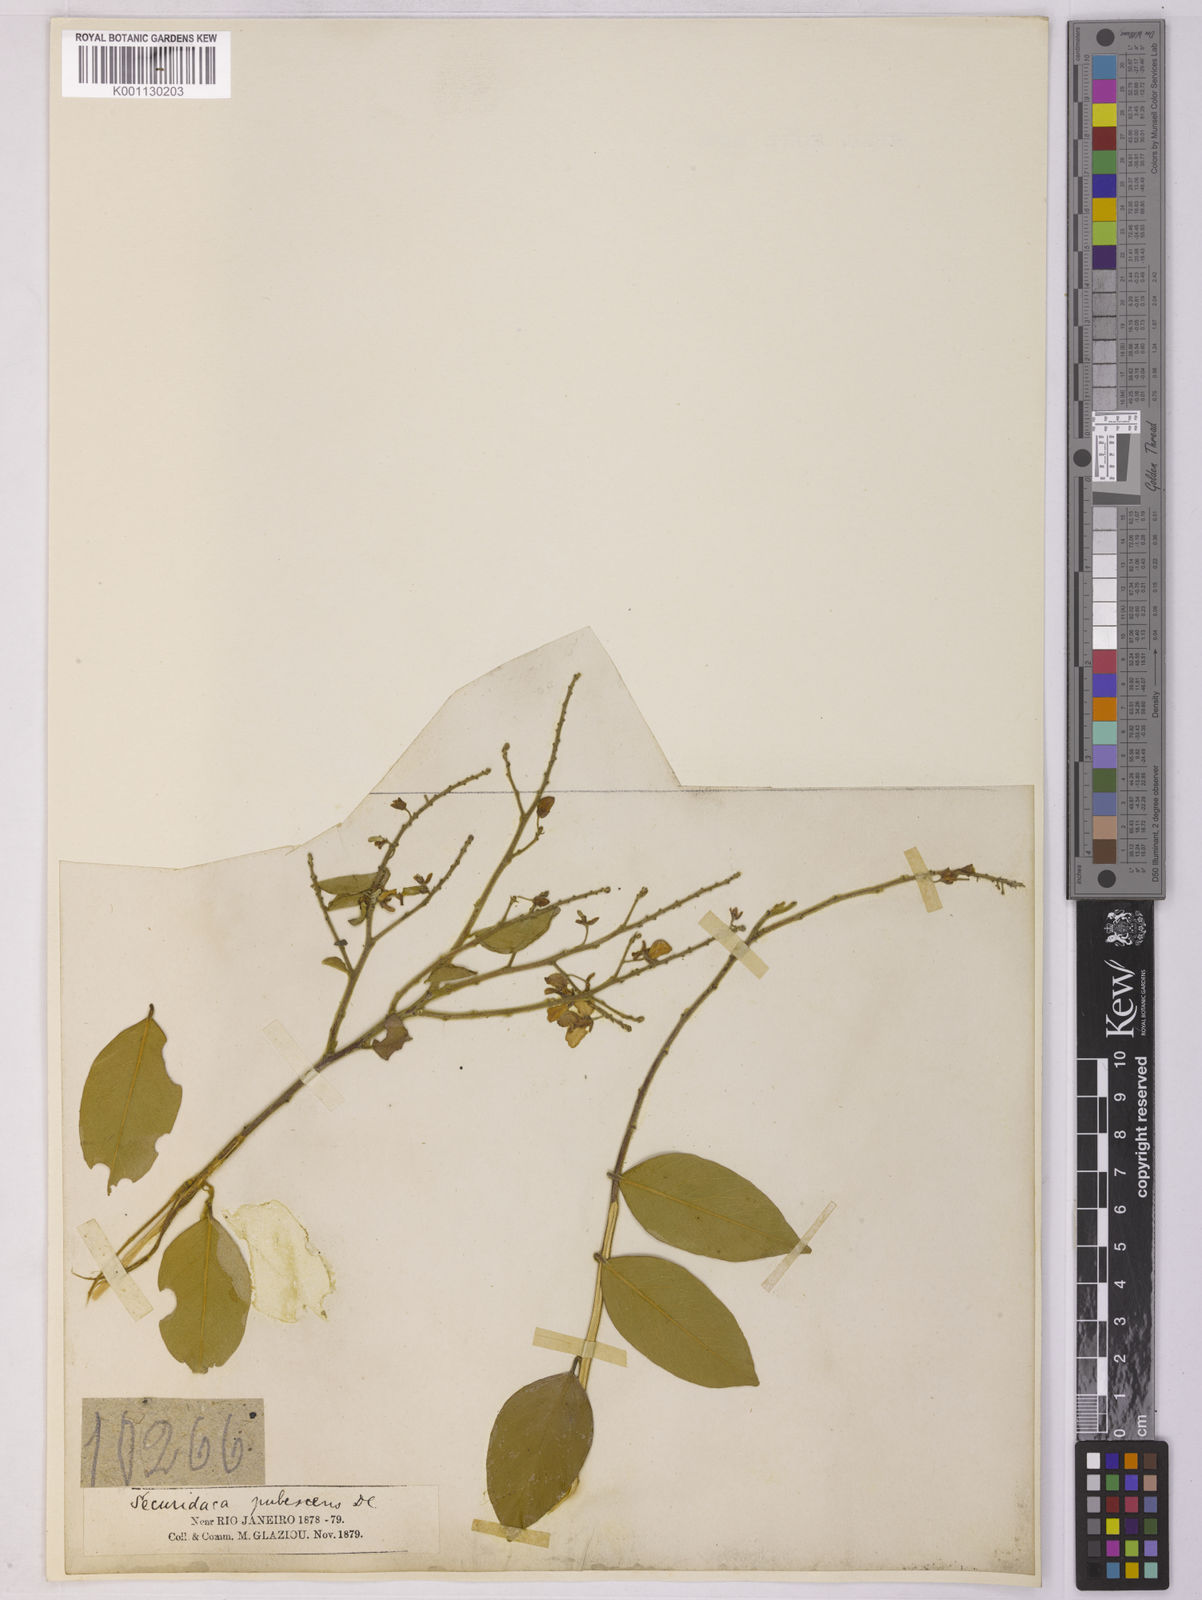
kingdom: Plantae
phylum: Tracheophyta
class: Magnoliopsida
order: Fabales
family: Polygalaceae
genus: Securidaca
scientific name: Securidaca
